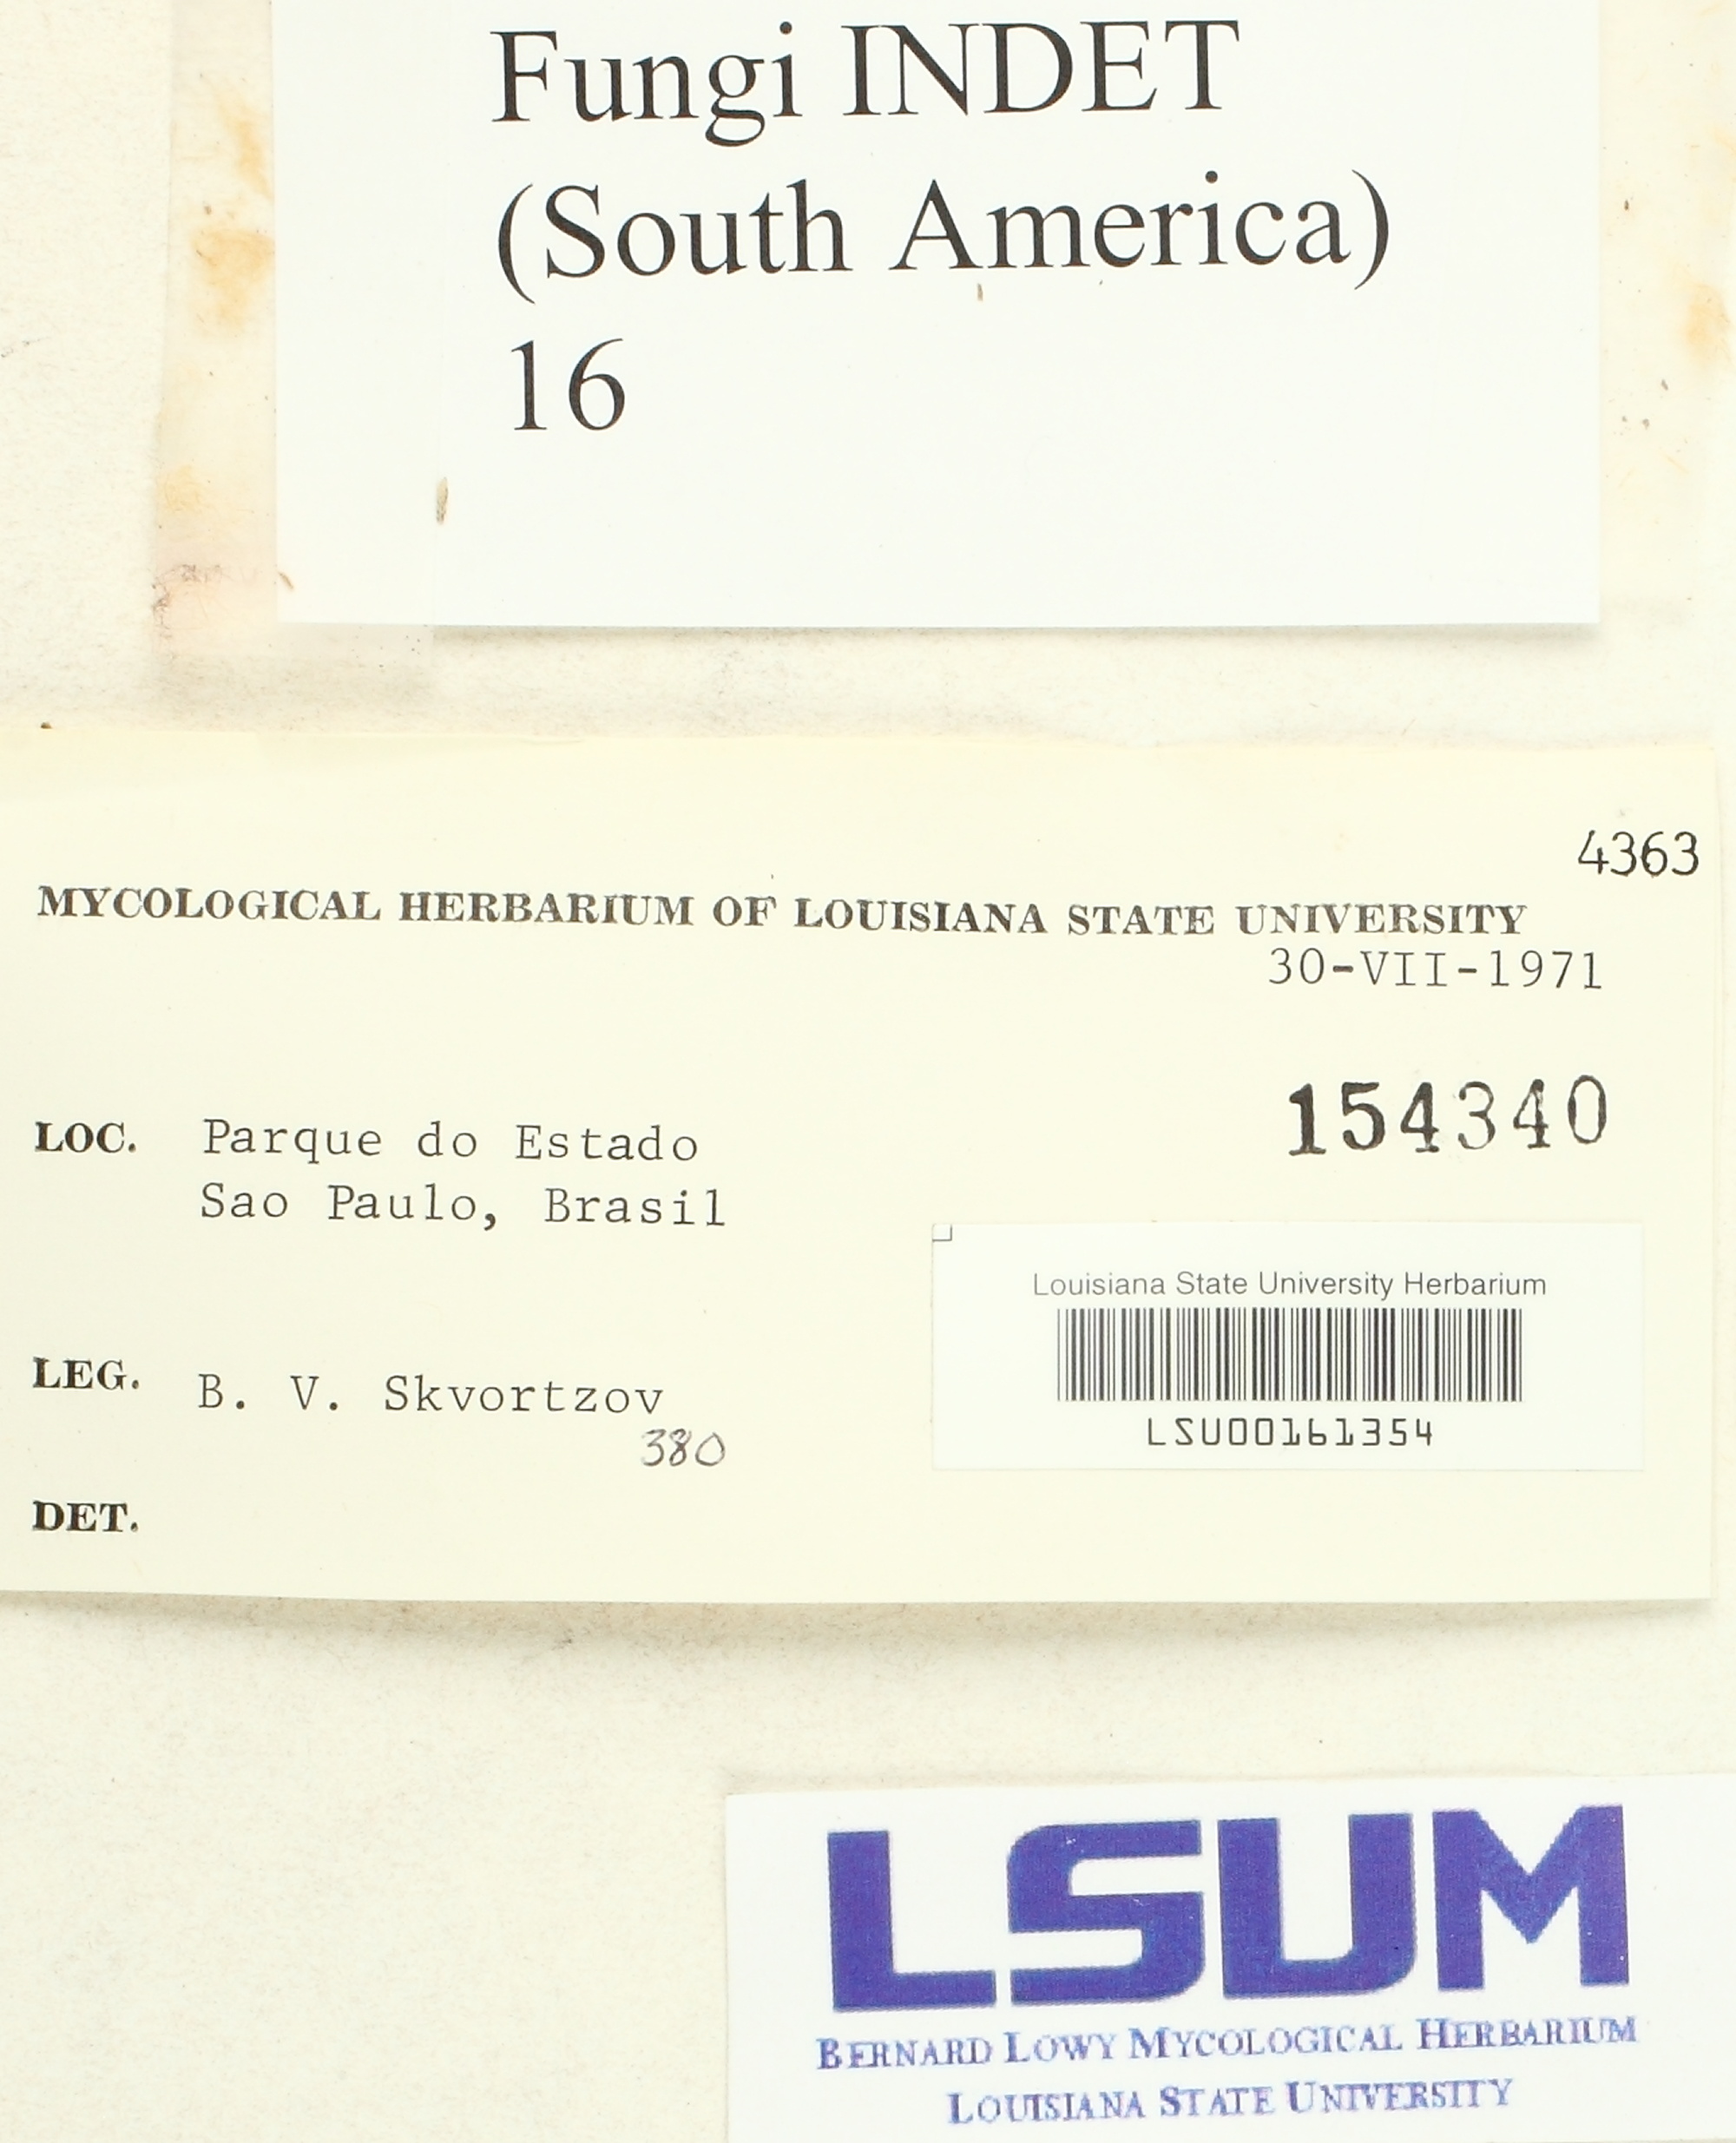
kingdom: Fungi
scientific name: Fungi
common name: Fungi
